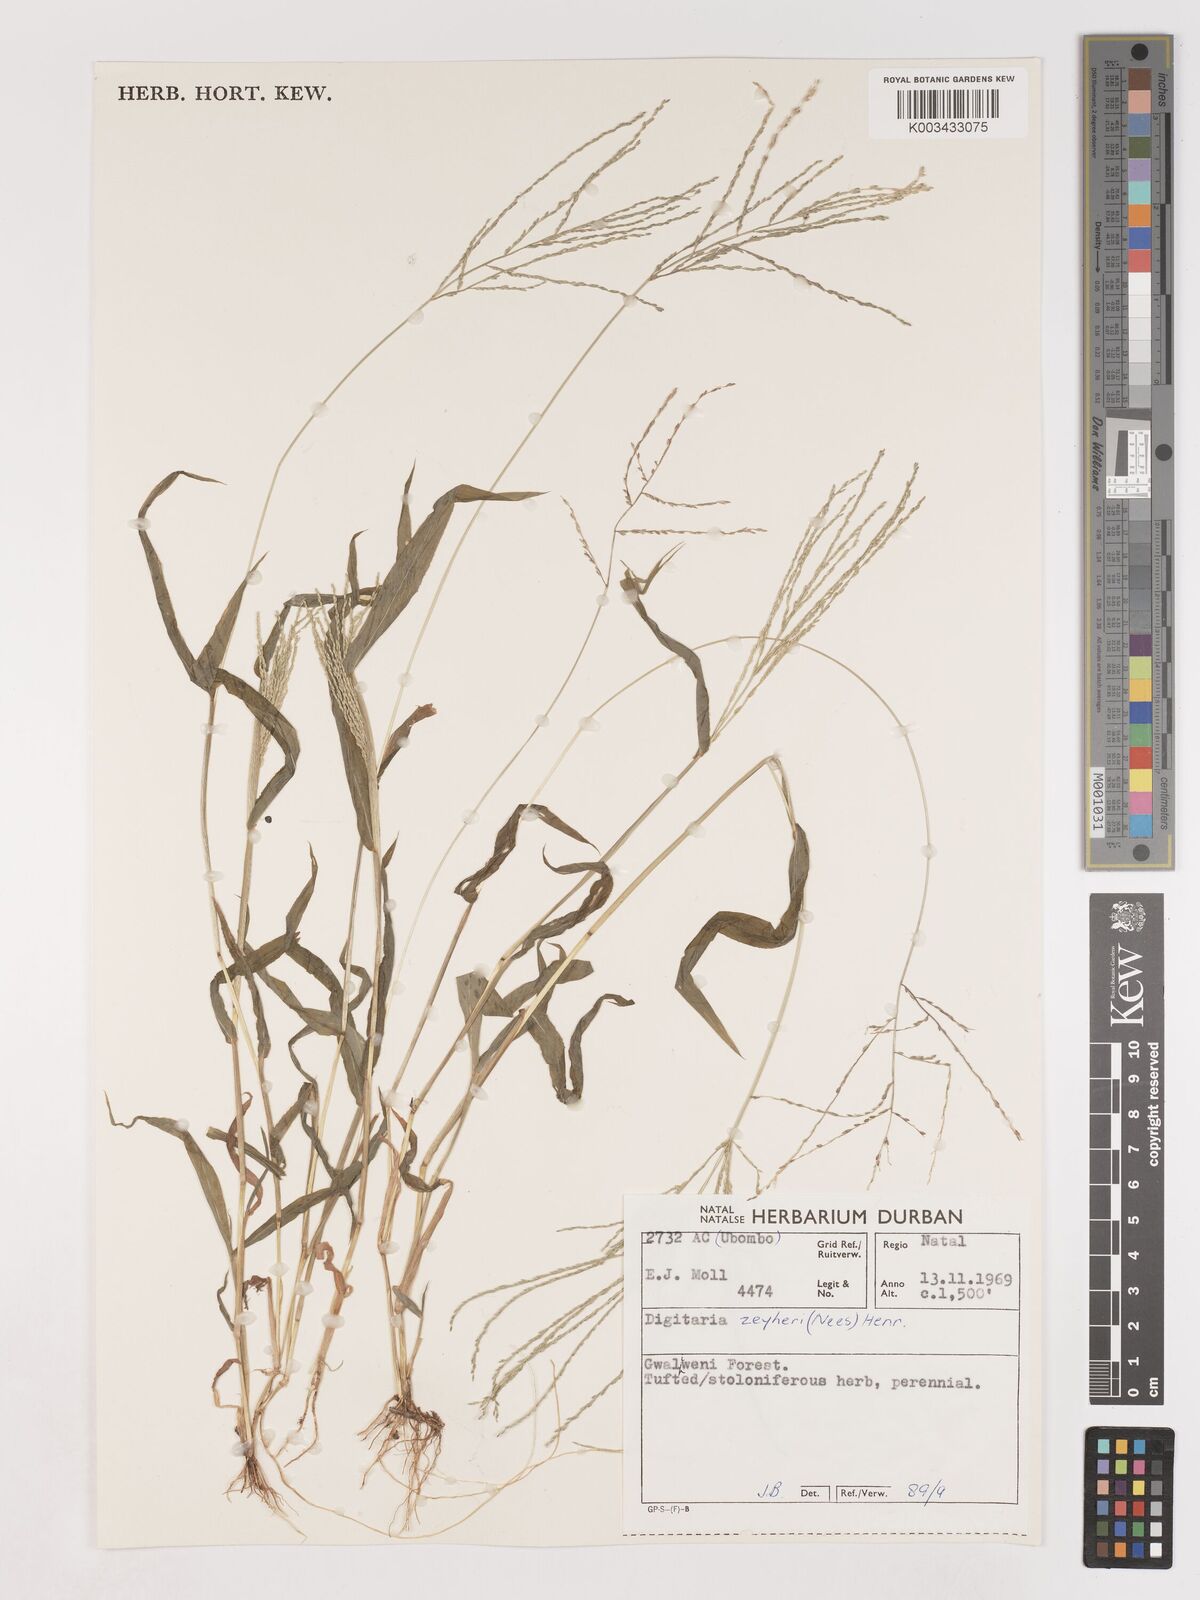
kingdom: Plantae
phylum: Tracheophyta
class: Liliopsida
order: Poales
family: Poaceae
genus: Digitaria
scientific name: Digitaria velutina
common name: Long-plume finger grass
